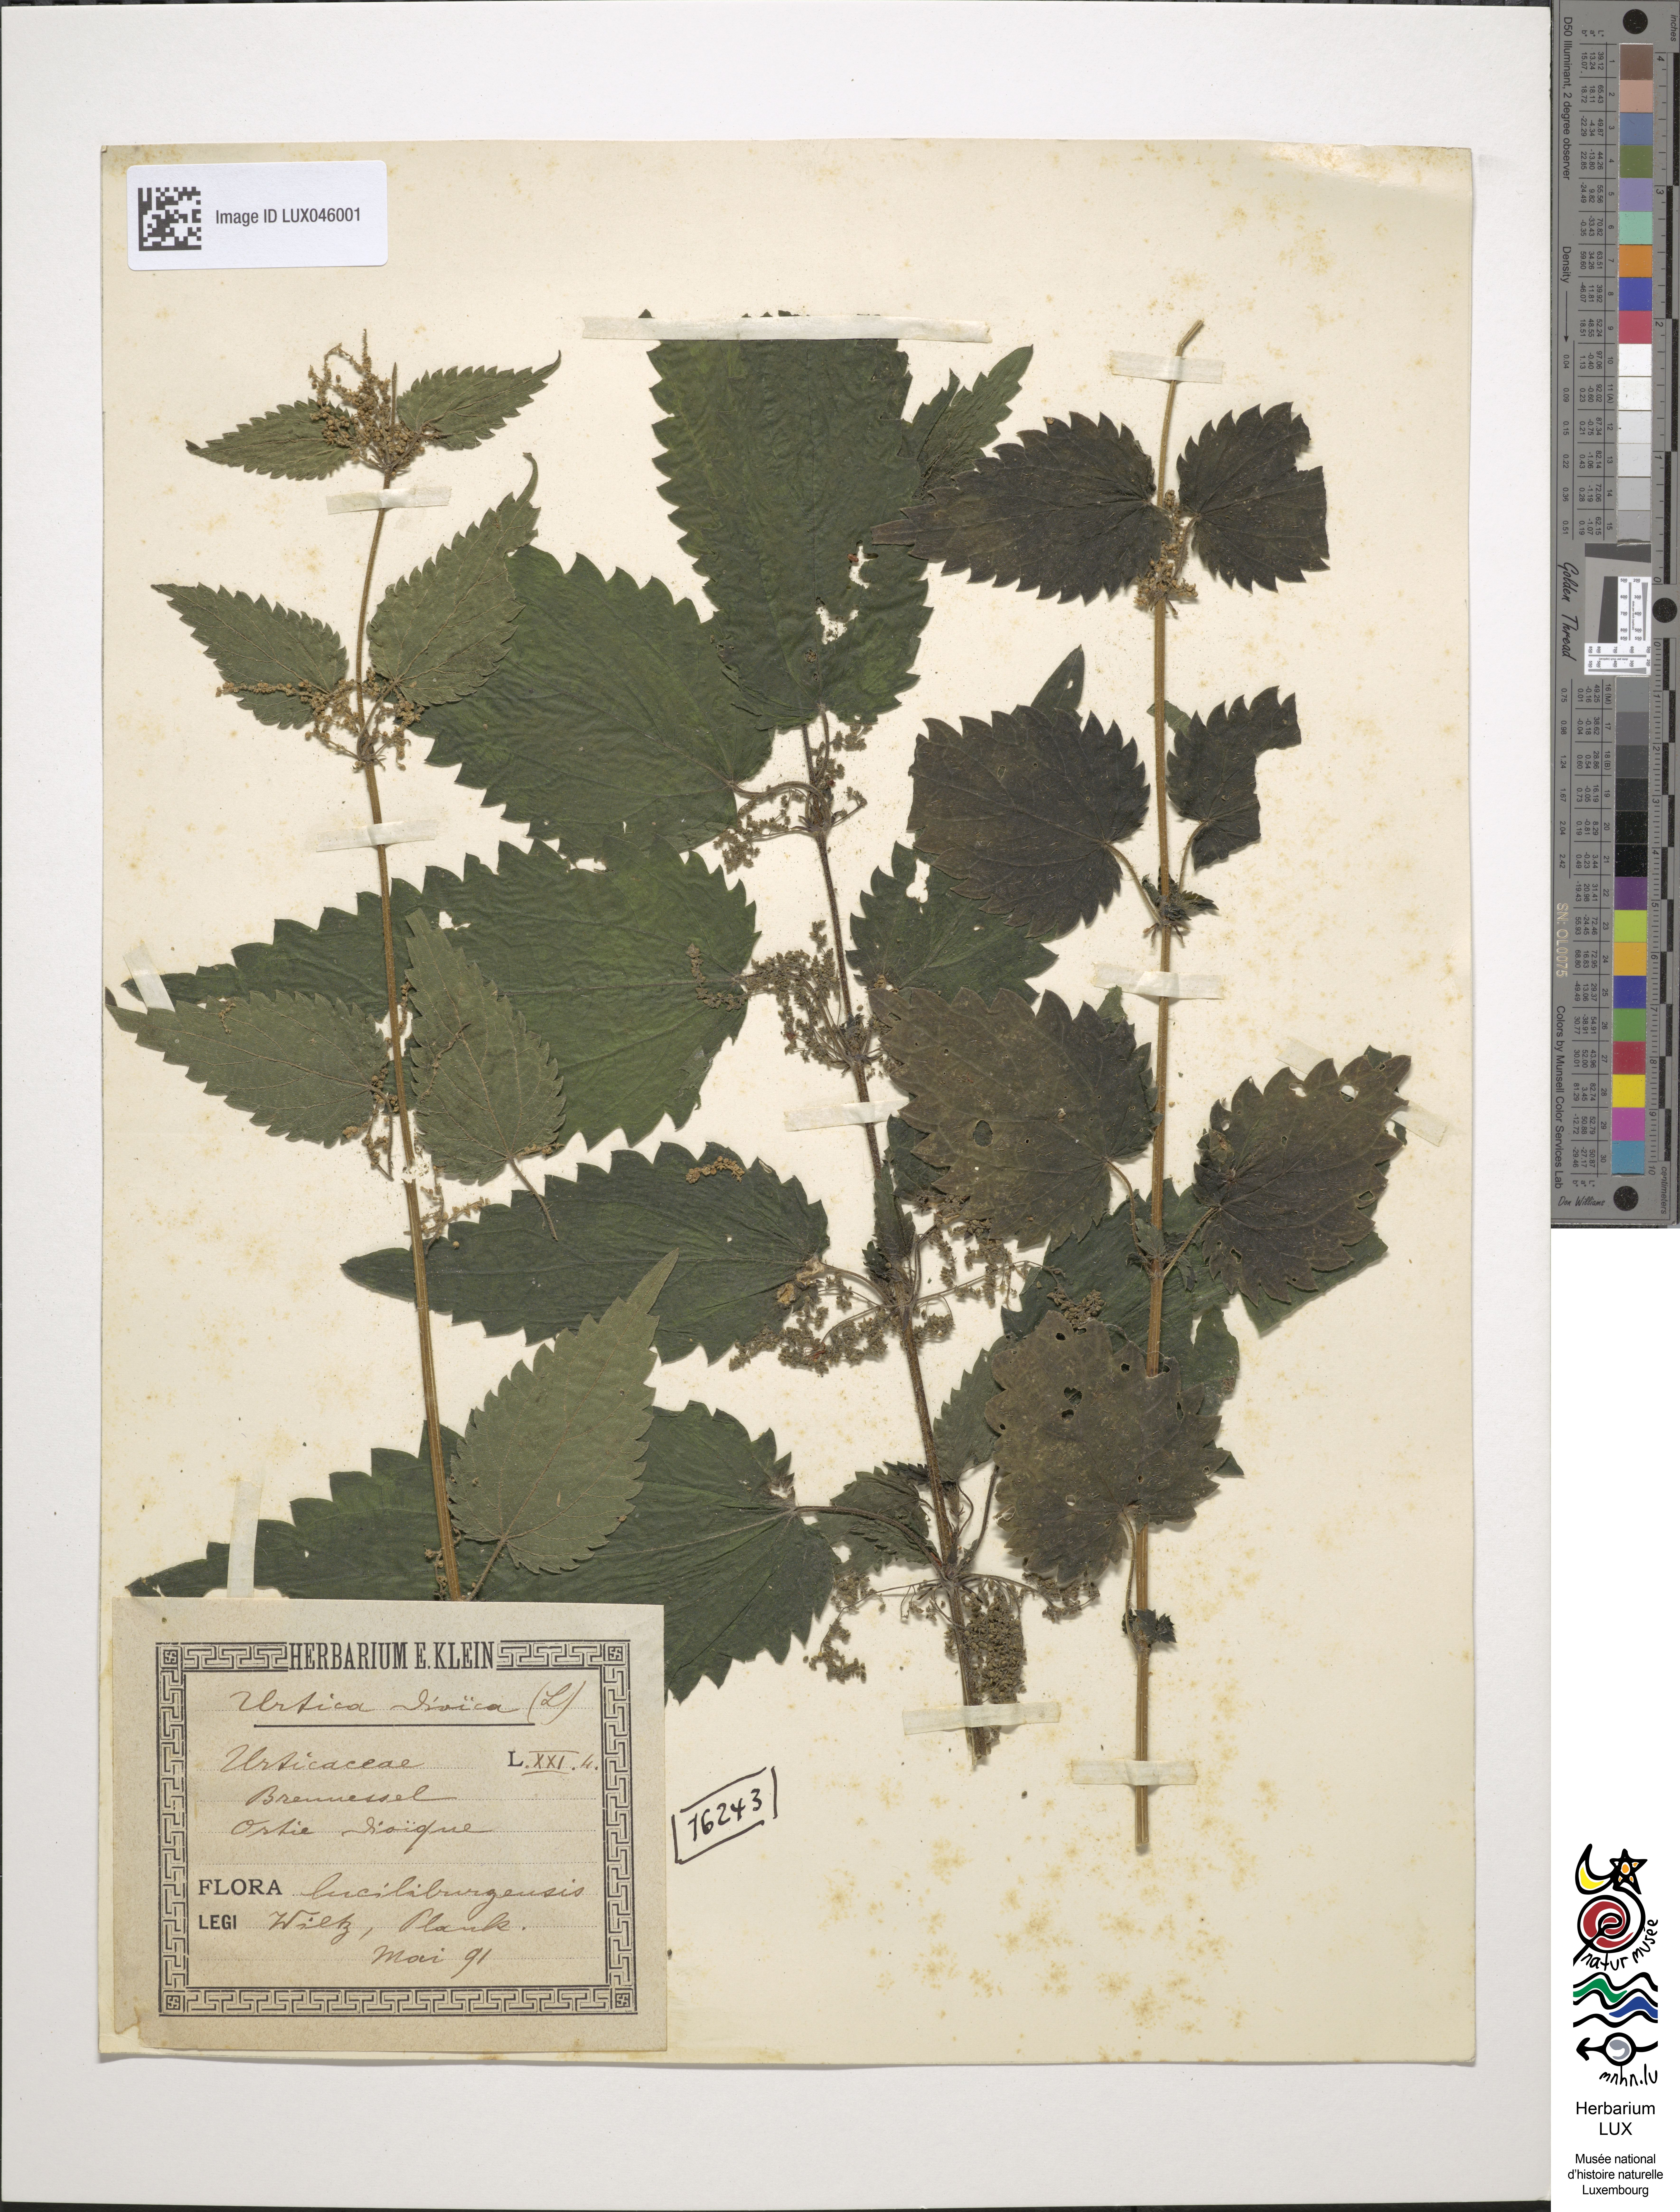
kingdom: Plantae
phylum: Tracheophyta
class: Magnoliopsida
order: Rosales
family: Urticaceae
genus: Urtica
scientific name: Urtica dioica
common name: Common nettle
